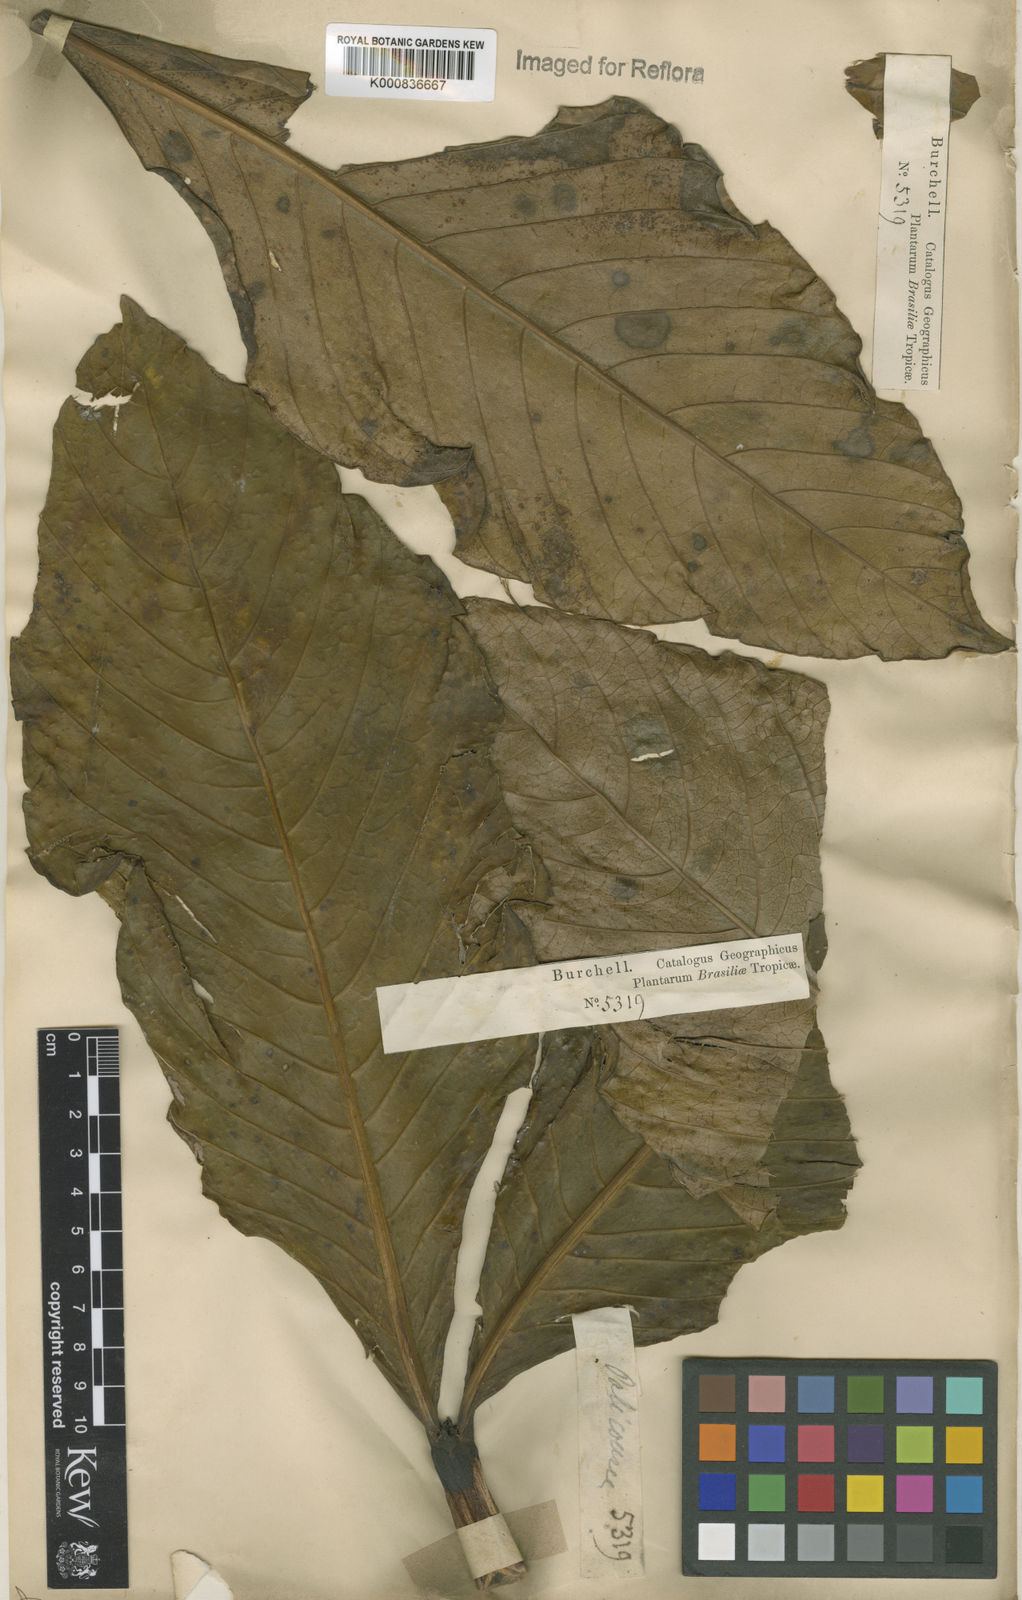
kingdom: Plantae
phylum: Tracheophyta
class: Magnoliopsida
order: Gentianales
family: Rubiaceae
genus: Palicourea
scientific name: Palicourea rigida
